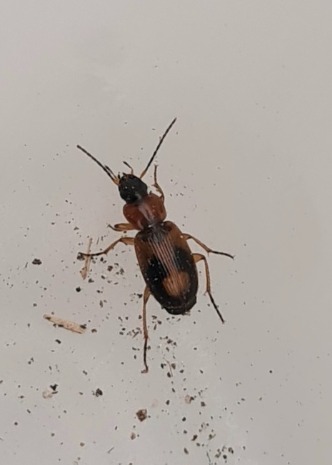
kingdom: Animalia
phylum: Arthropoda
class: Insecta
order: Coleoptera
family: Carabidae
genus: Badister
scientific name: Badister bullatus
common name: Almindelig sumpløber
